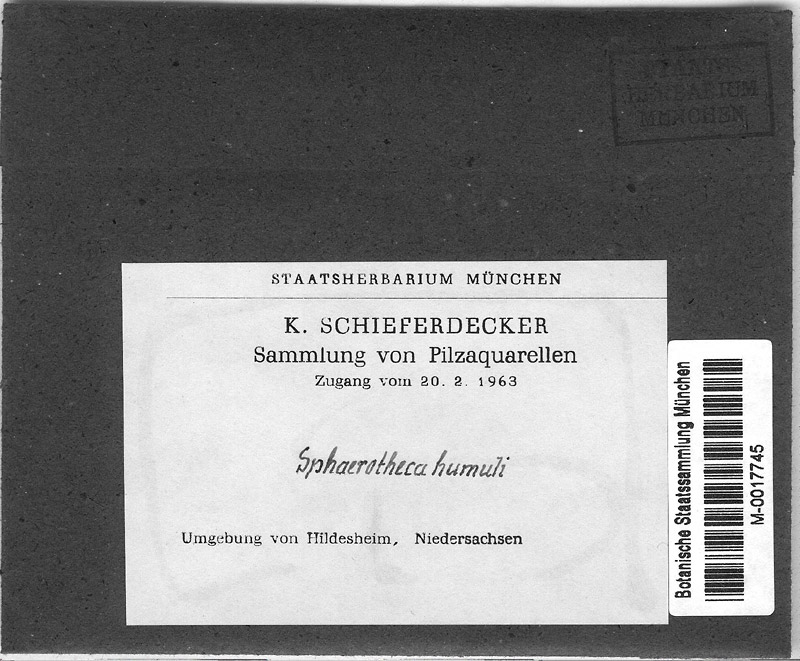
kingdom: Fungi
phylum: Ascomycota
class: Leotiomycetes
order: Helotiales
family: Erysiphaceae
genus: Podosphaera
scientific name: Podosphaera balsaminae
